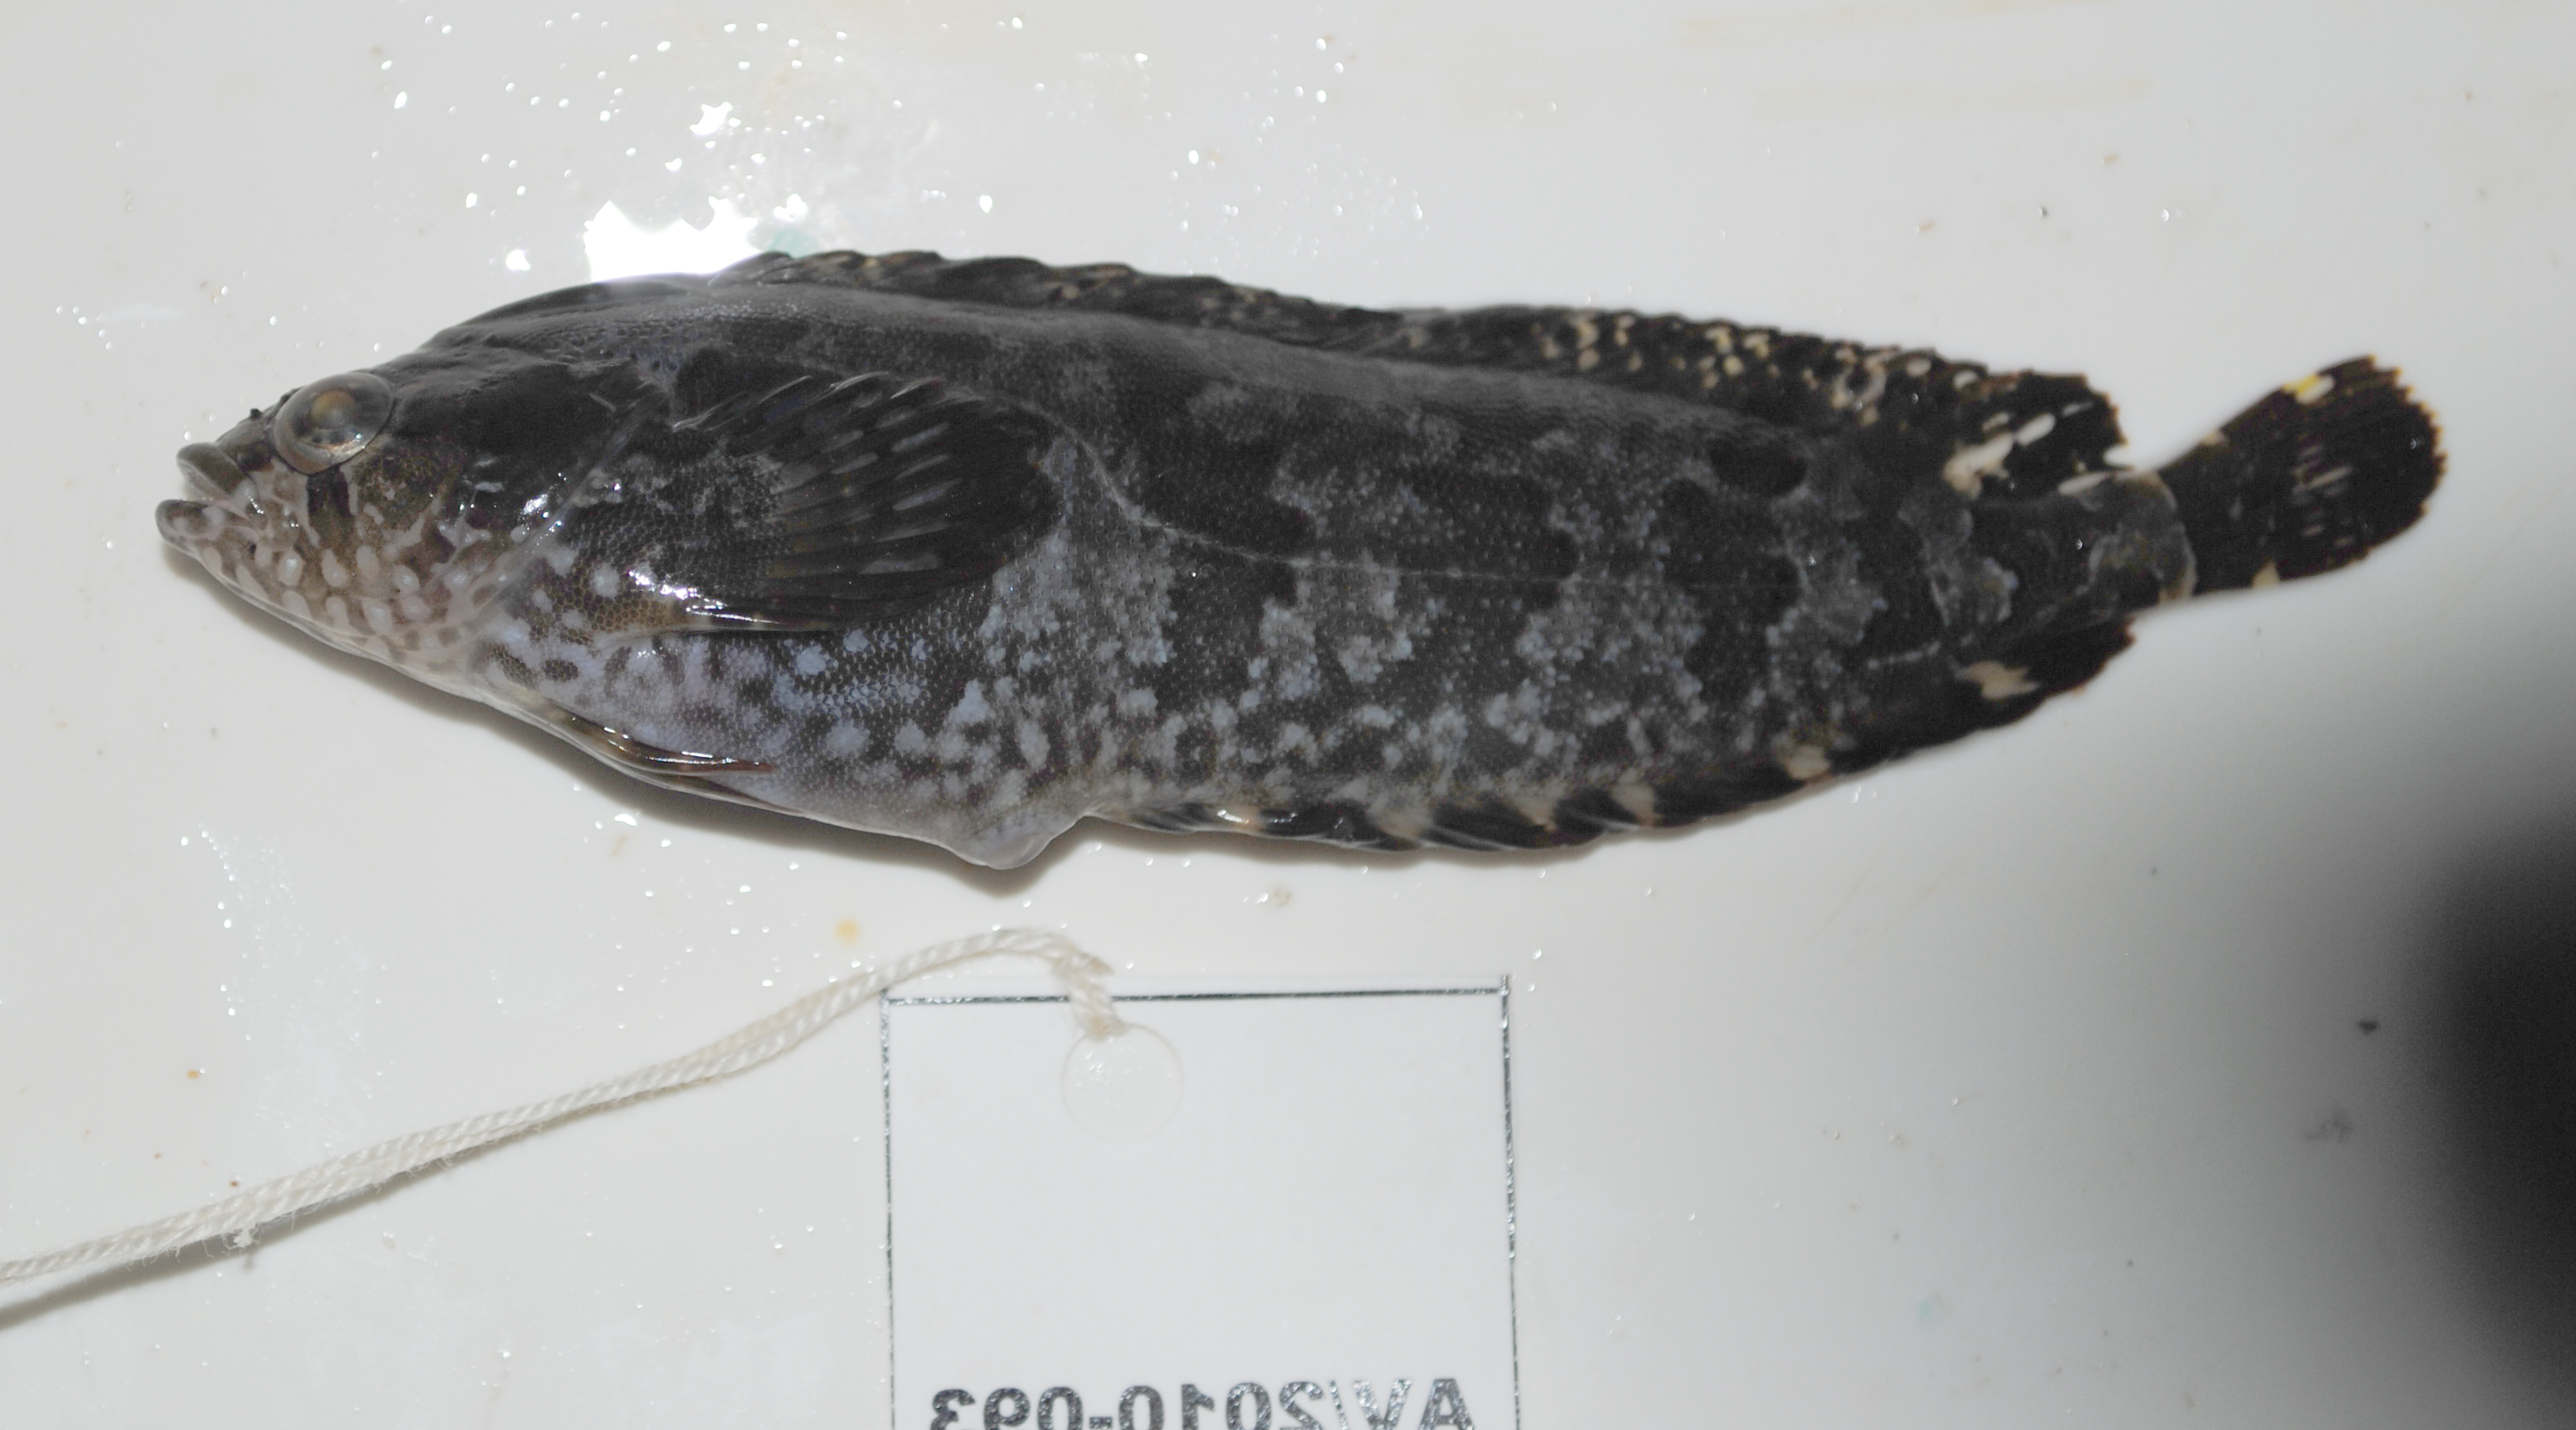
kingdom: Animalia
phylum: Chordata
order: Perciformes
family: Clinidae
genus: Pavoclinus
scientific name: Pavoclinus laurentii
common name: Rippled klipfish
